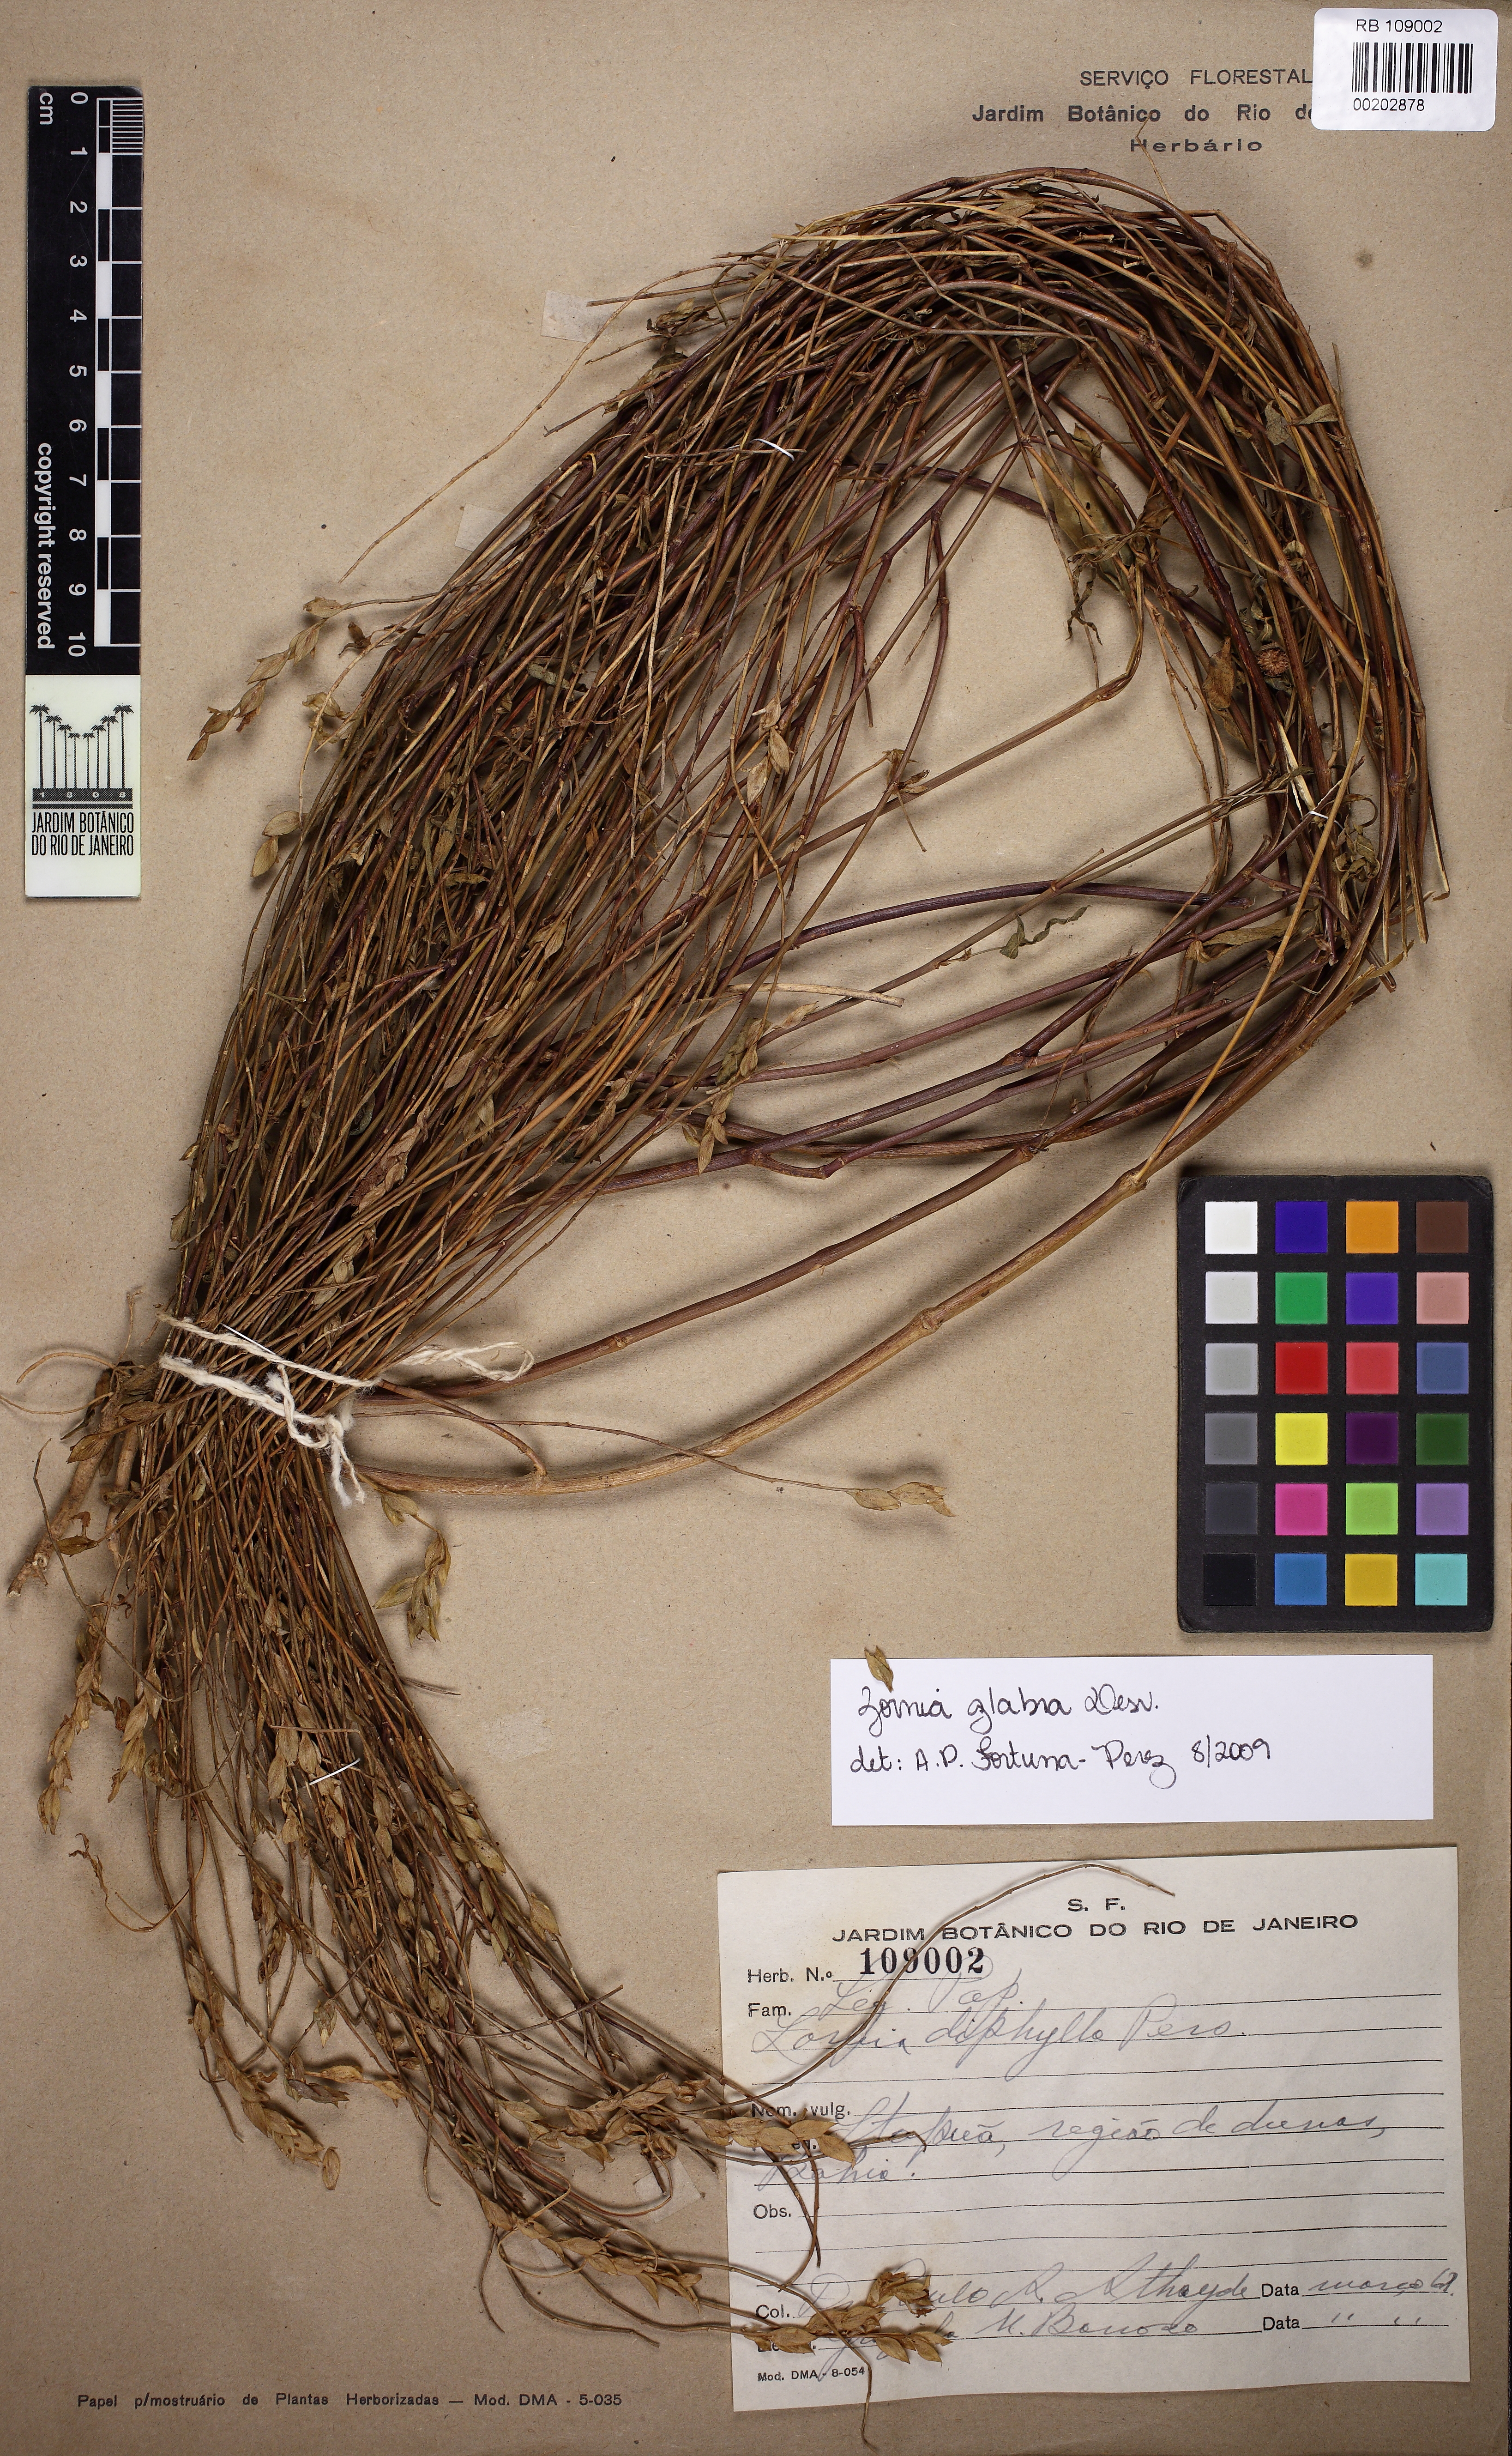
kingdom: Plantae
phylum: Tracheophyta
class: Magnoliopsida
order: Fabales
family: Fabaceae
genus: Zornia
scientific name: Zornia glabra
